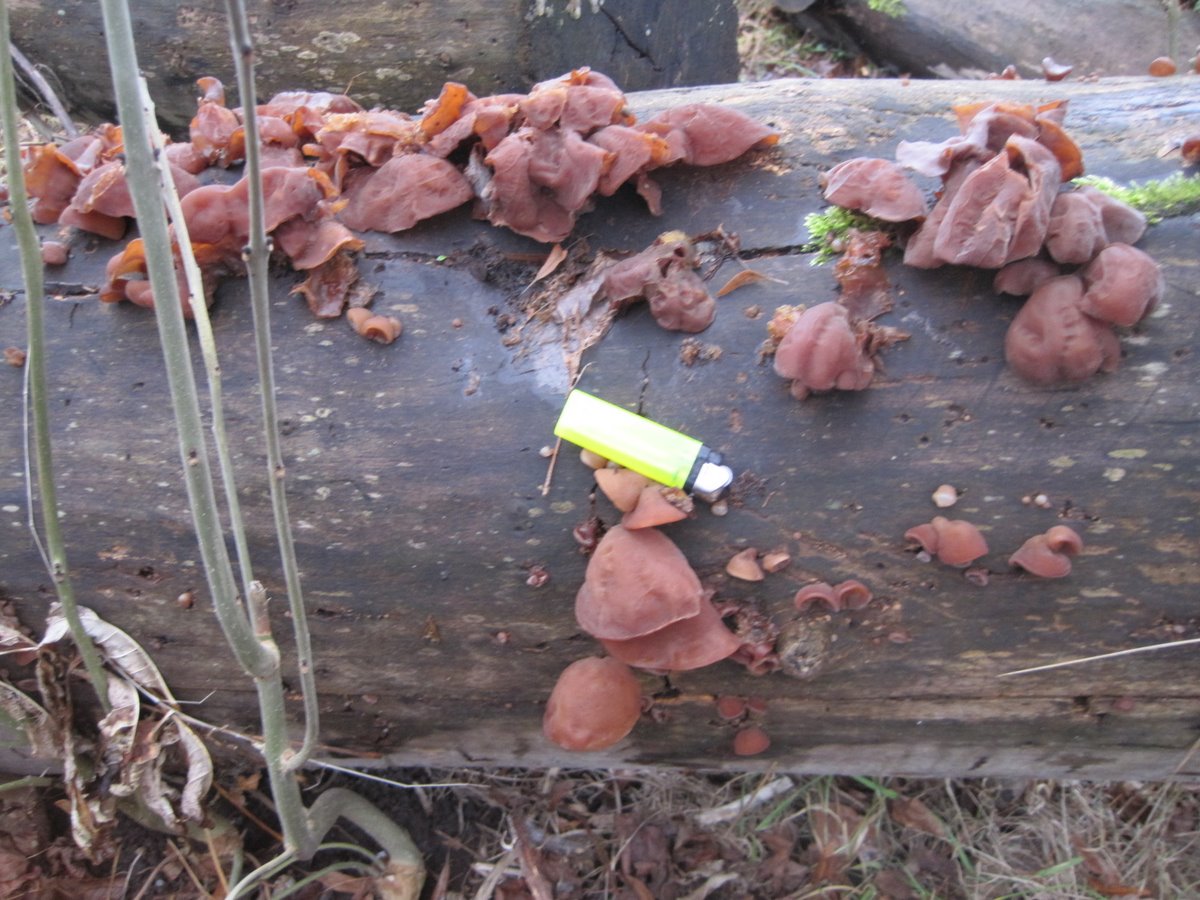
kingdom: Fungi
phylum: Basidiomycota
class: Agaricomycetes
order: Auriculariales
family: Auriculariaceae
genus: Auricularia
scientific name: Auricularia auricula-judae
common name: almindelig judasøre
